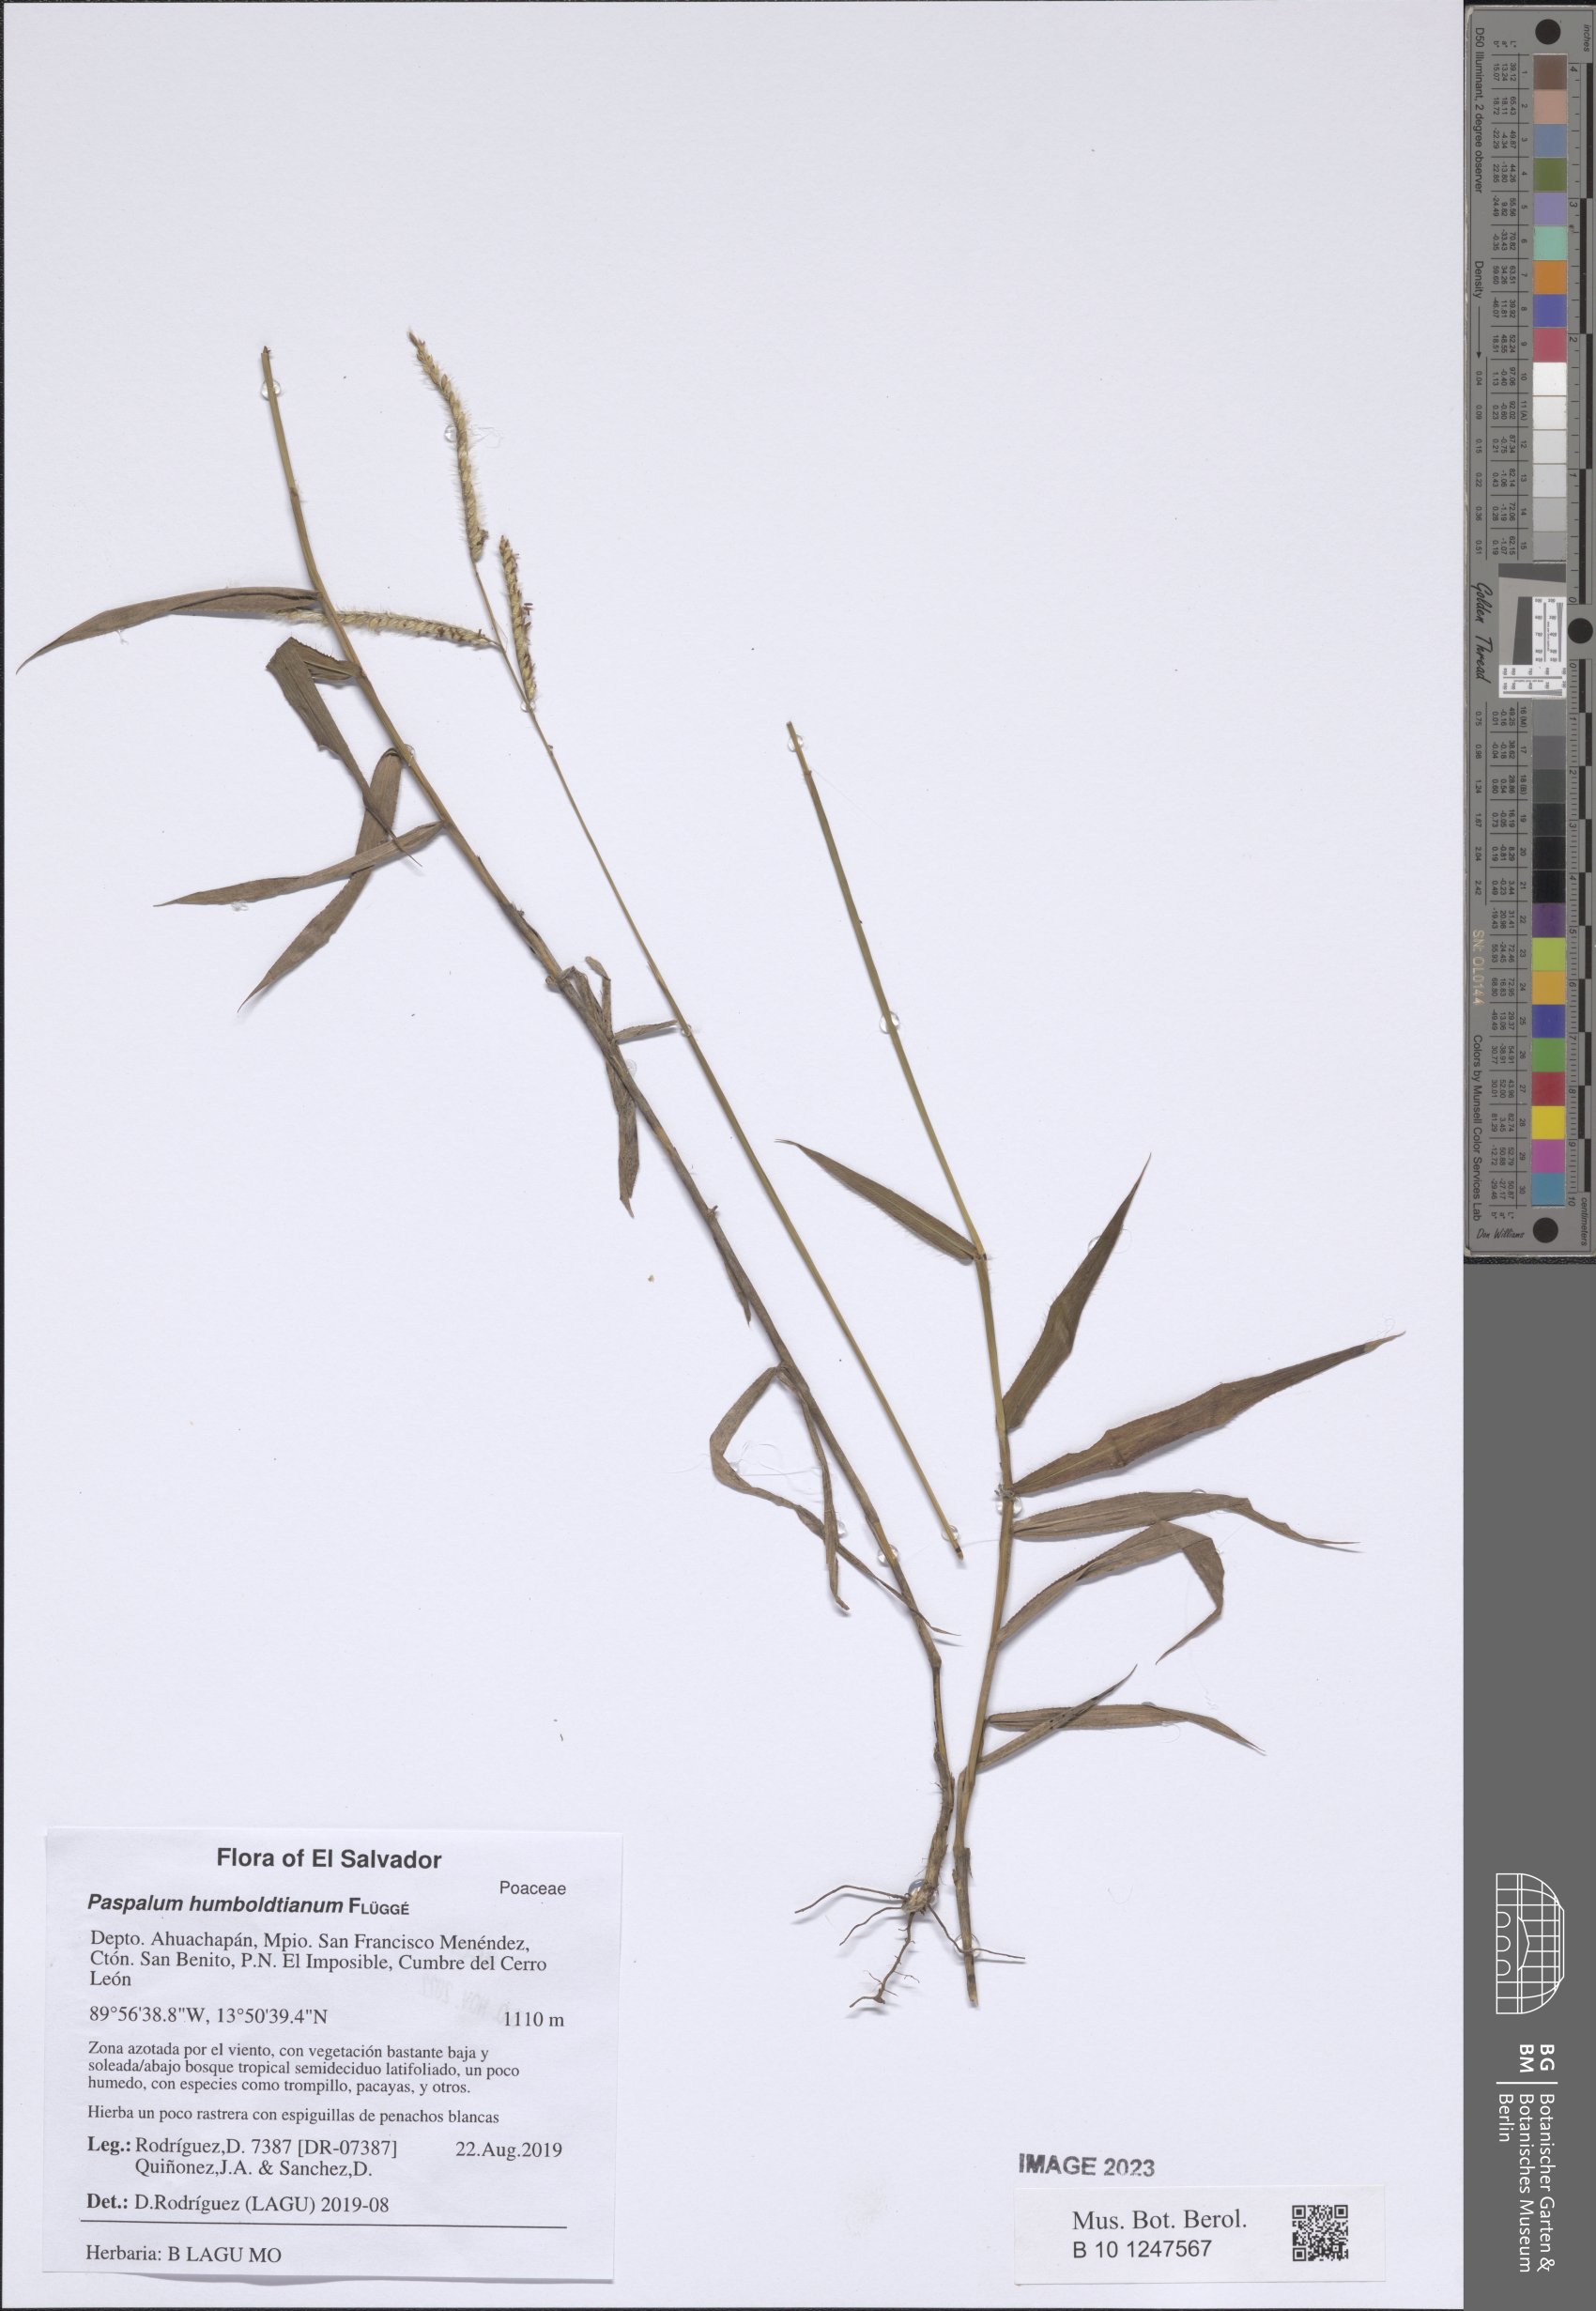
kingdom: Plantae
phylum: Tracheophyta
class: Liliopsida
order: Poales
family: Poaceae
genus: Paspalum
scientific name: Paspalum humboldtianum
